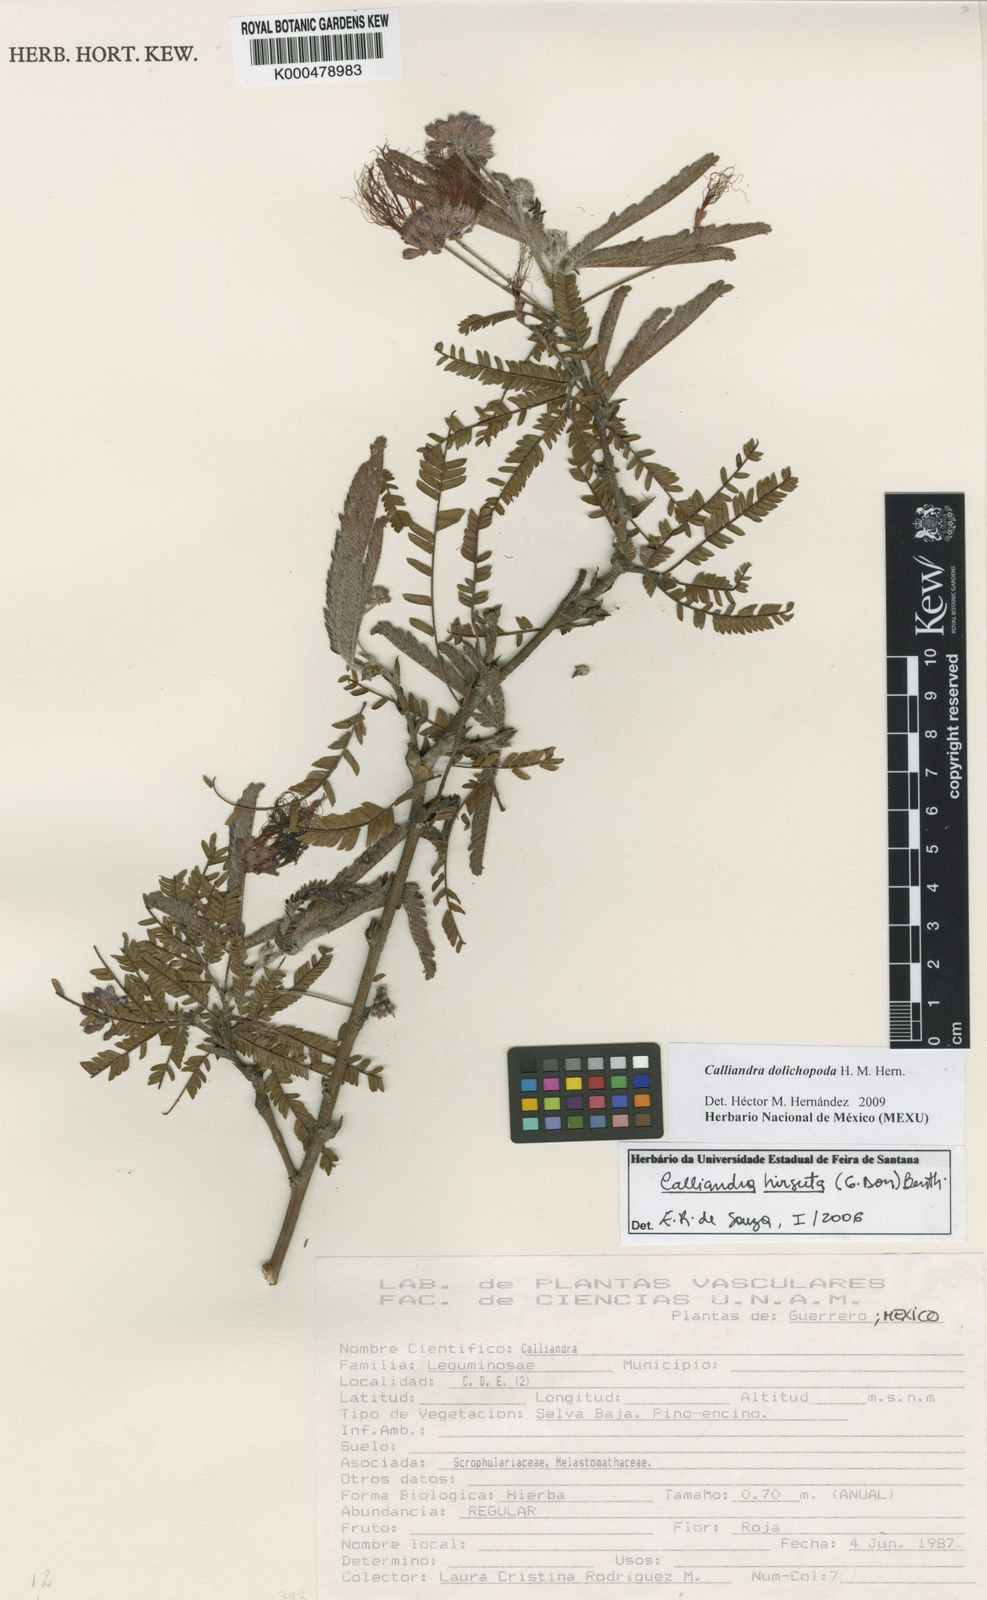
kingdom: Plantae
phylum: Tracheophyta
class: Magnoliopsida
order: Fabales
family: Fabaceae
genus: Calliandra
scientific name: Calliandra dolichopoda
